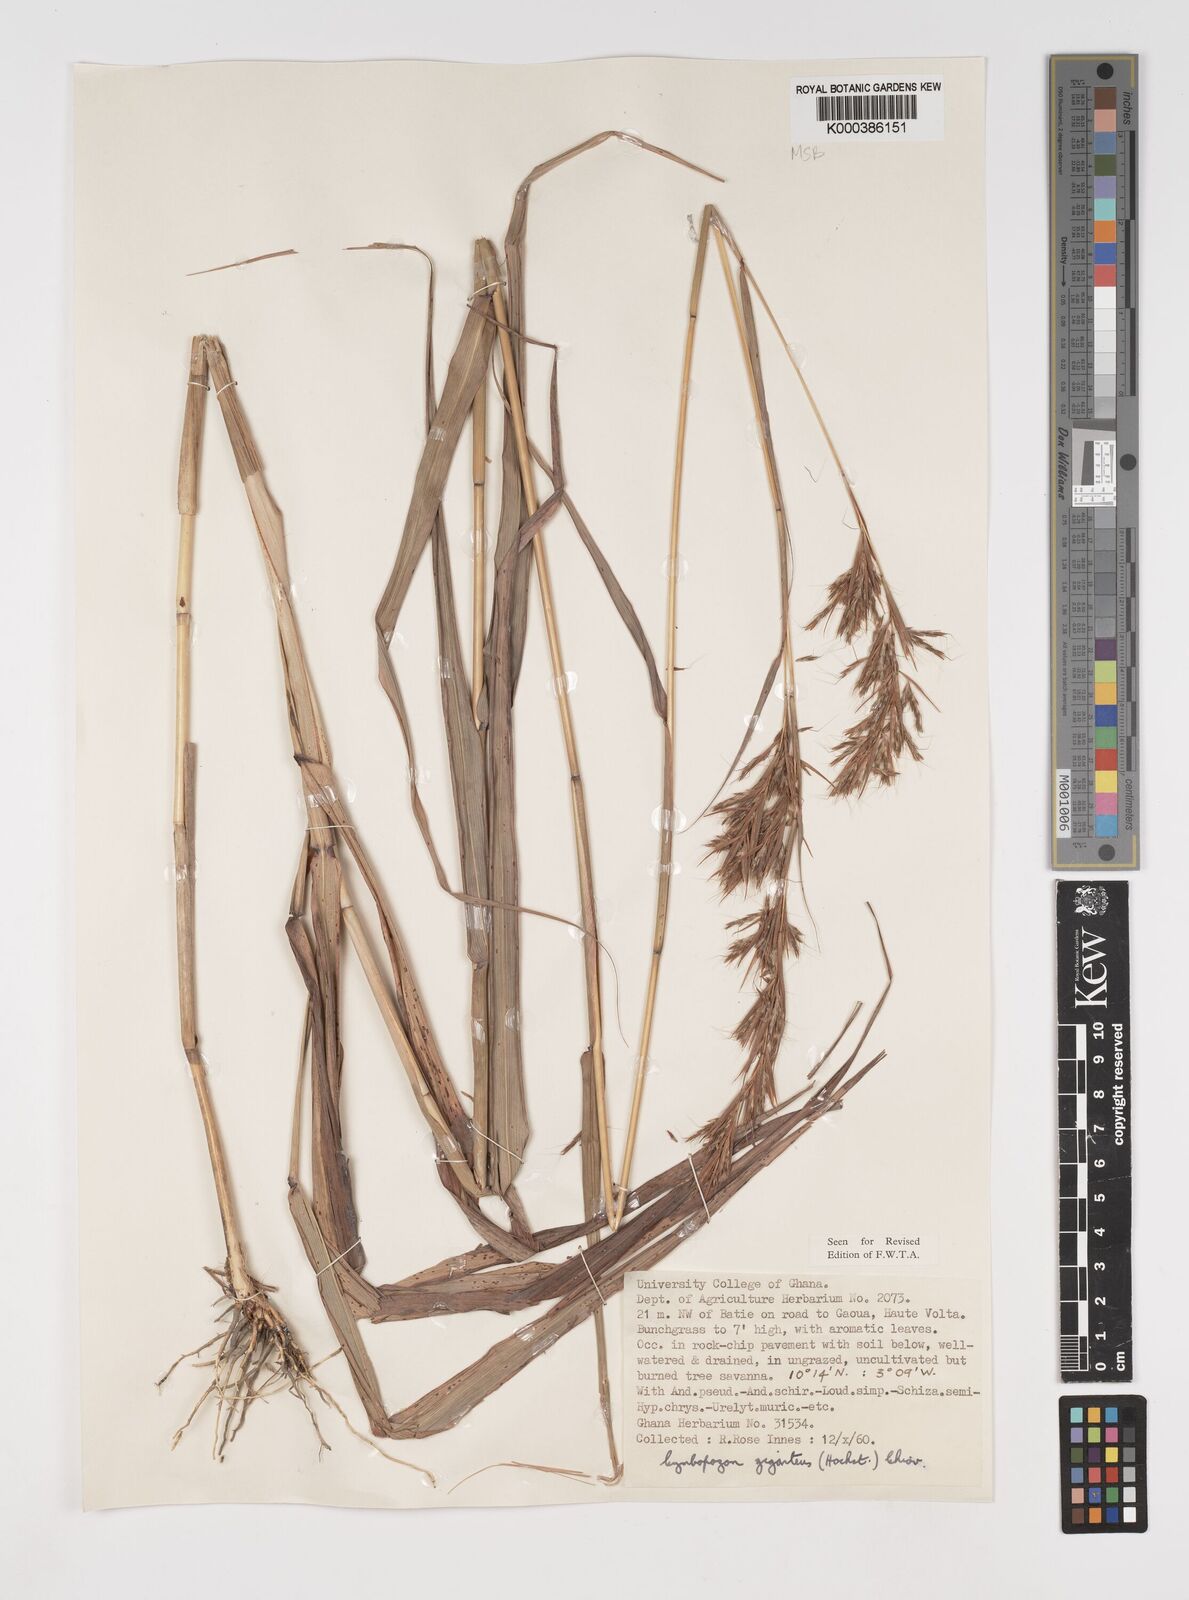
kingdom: Plantae
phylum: Tracheophyta
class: Liliopsida
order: Poales
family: Poaceae
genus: Cymbopogon
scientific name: Cymbopogon giganteus
